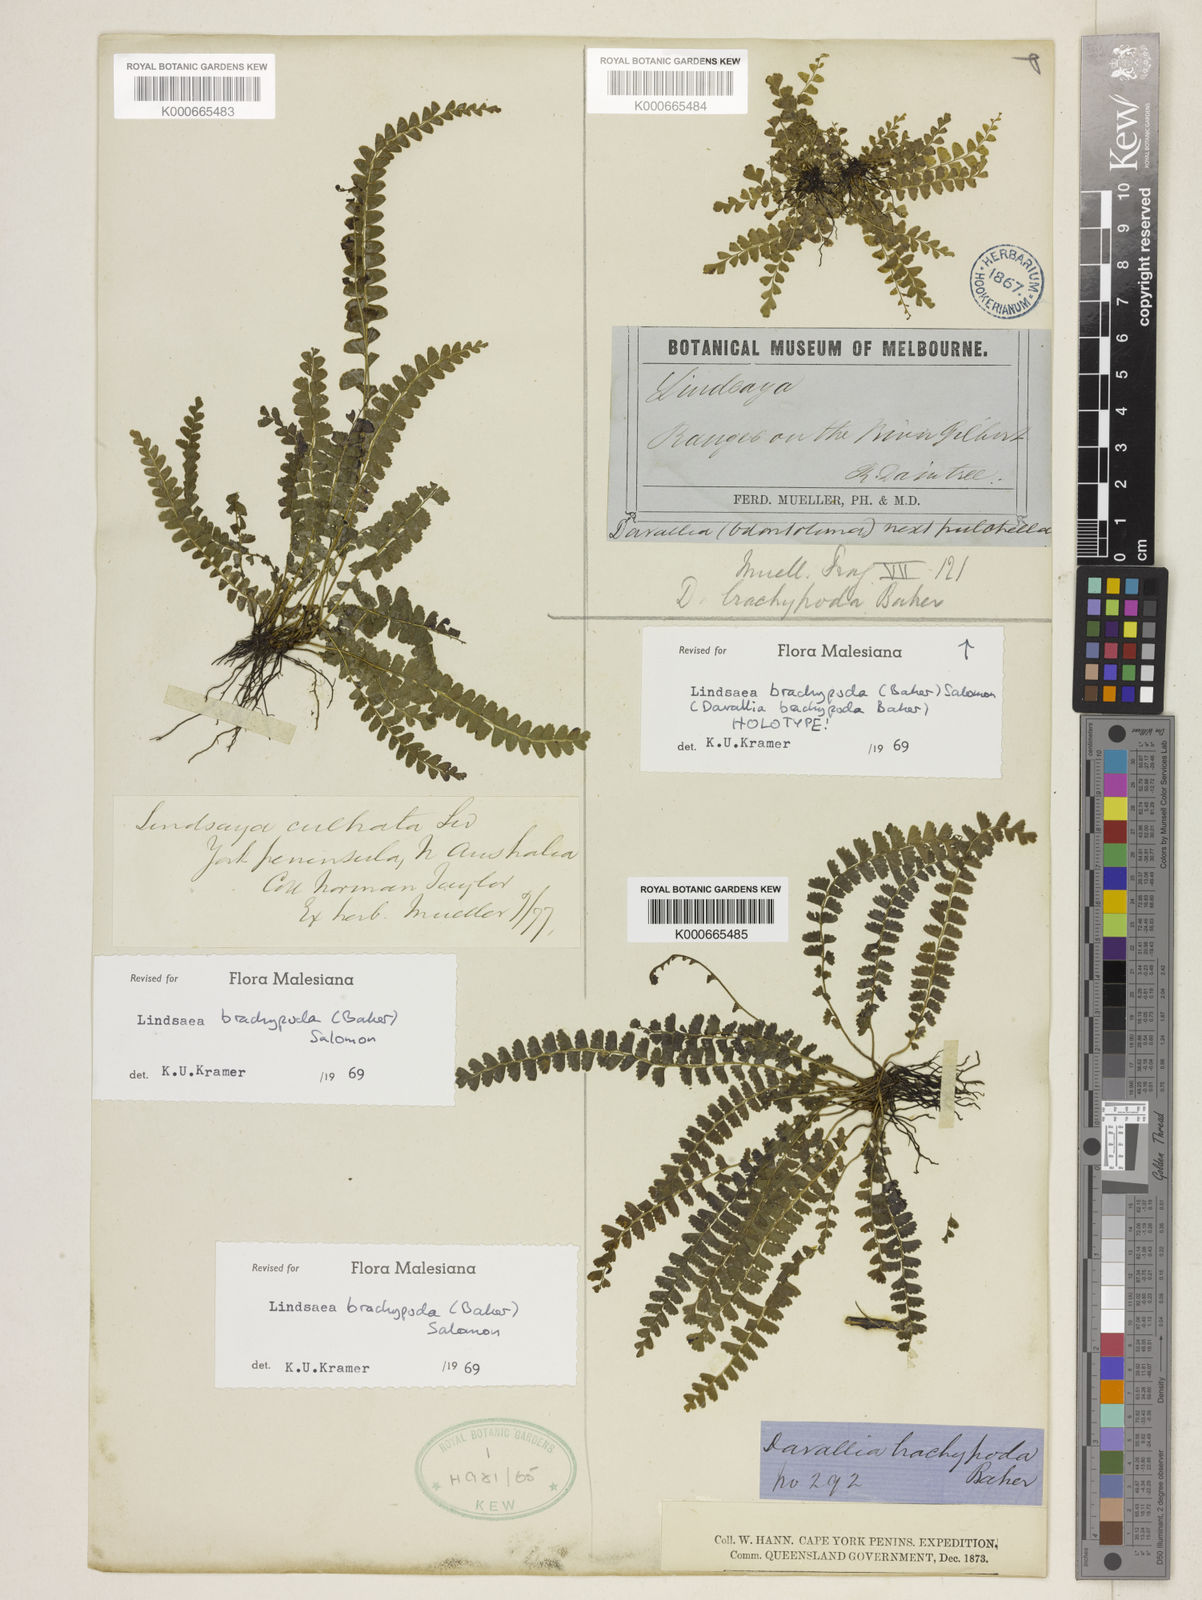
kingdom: Plantae
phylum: Tracheophyta
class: Polypodiopsida
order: Polypodiales
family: Lindsaeaceae
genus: Lindsaea
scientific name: Lindsaea dimorpha
